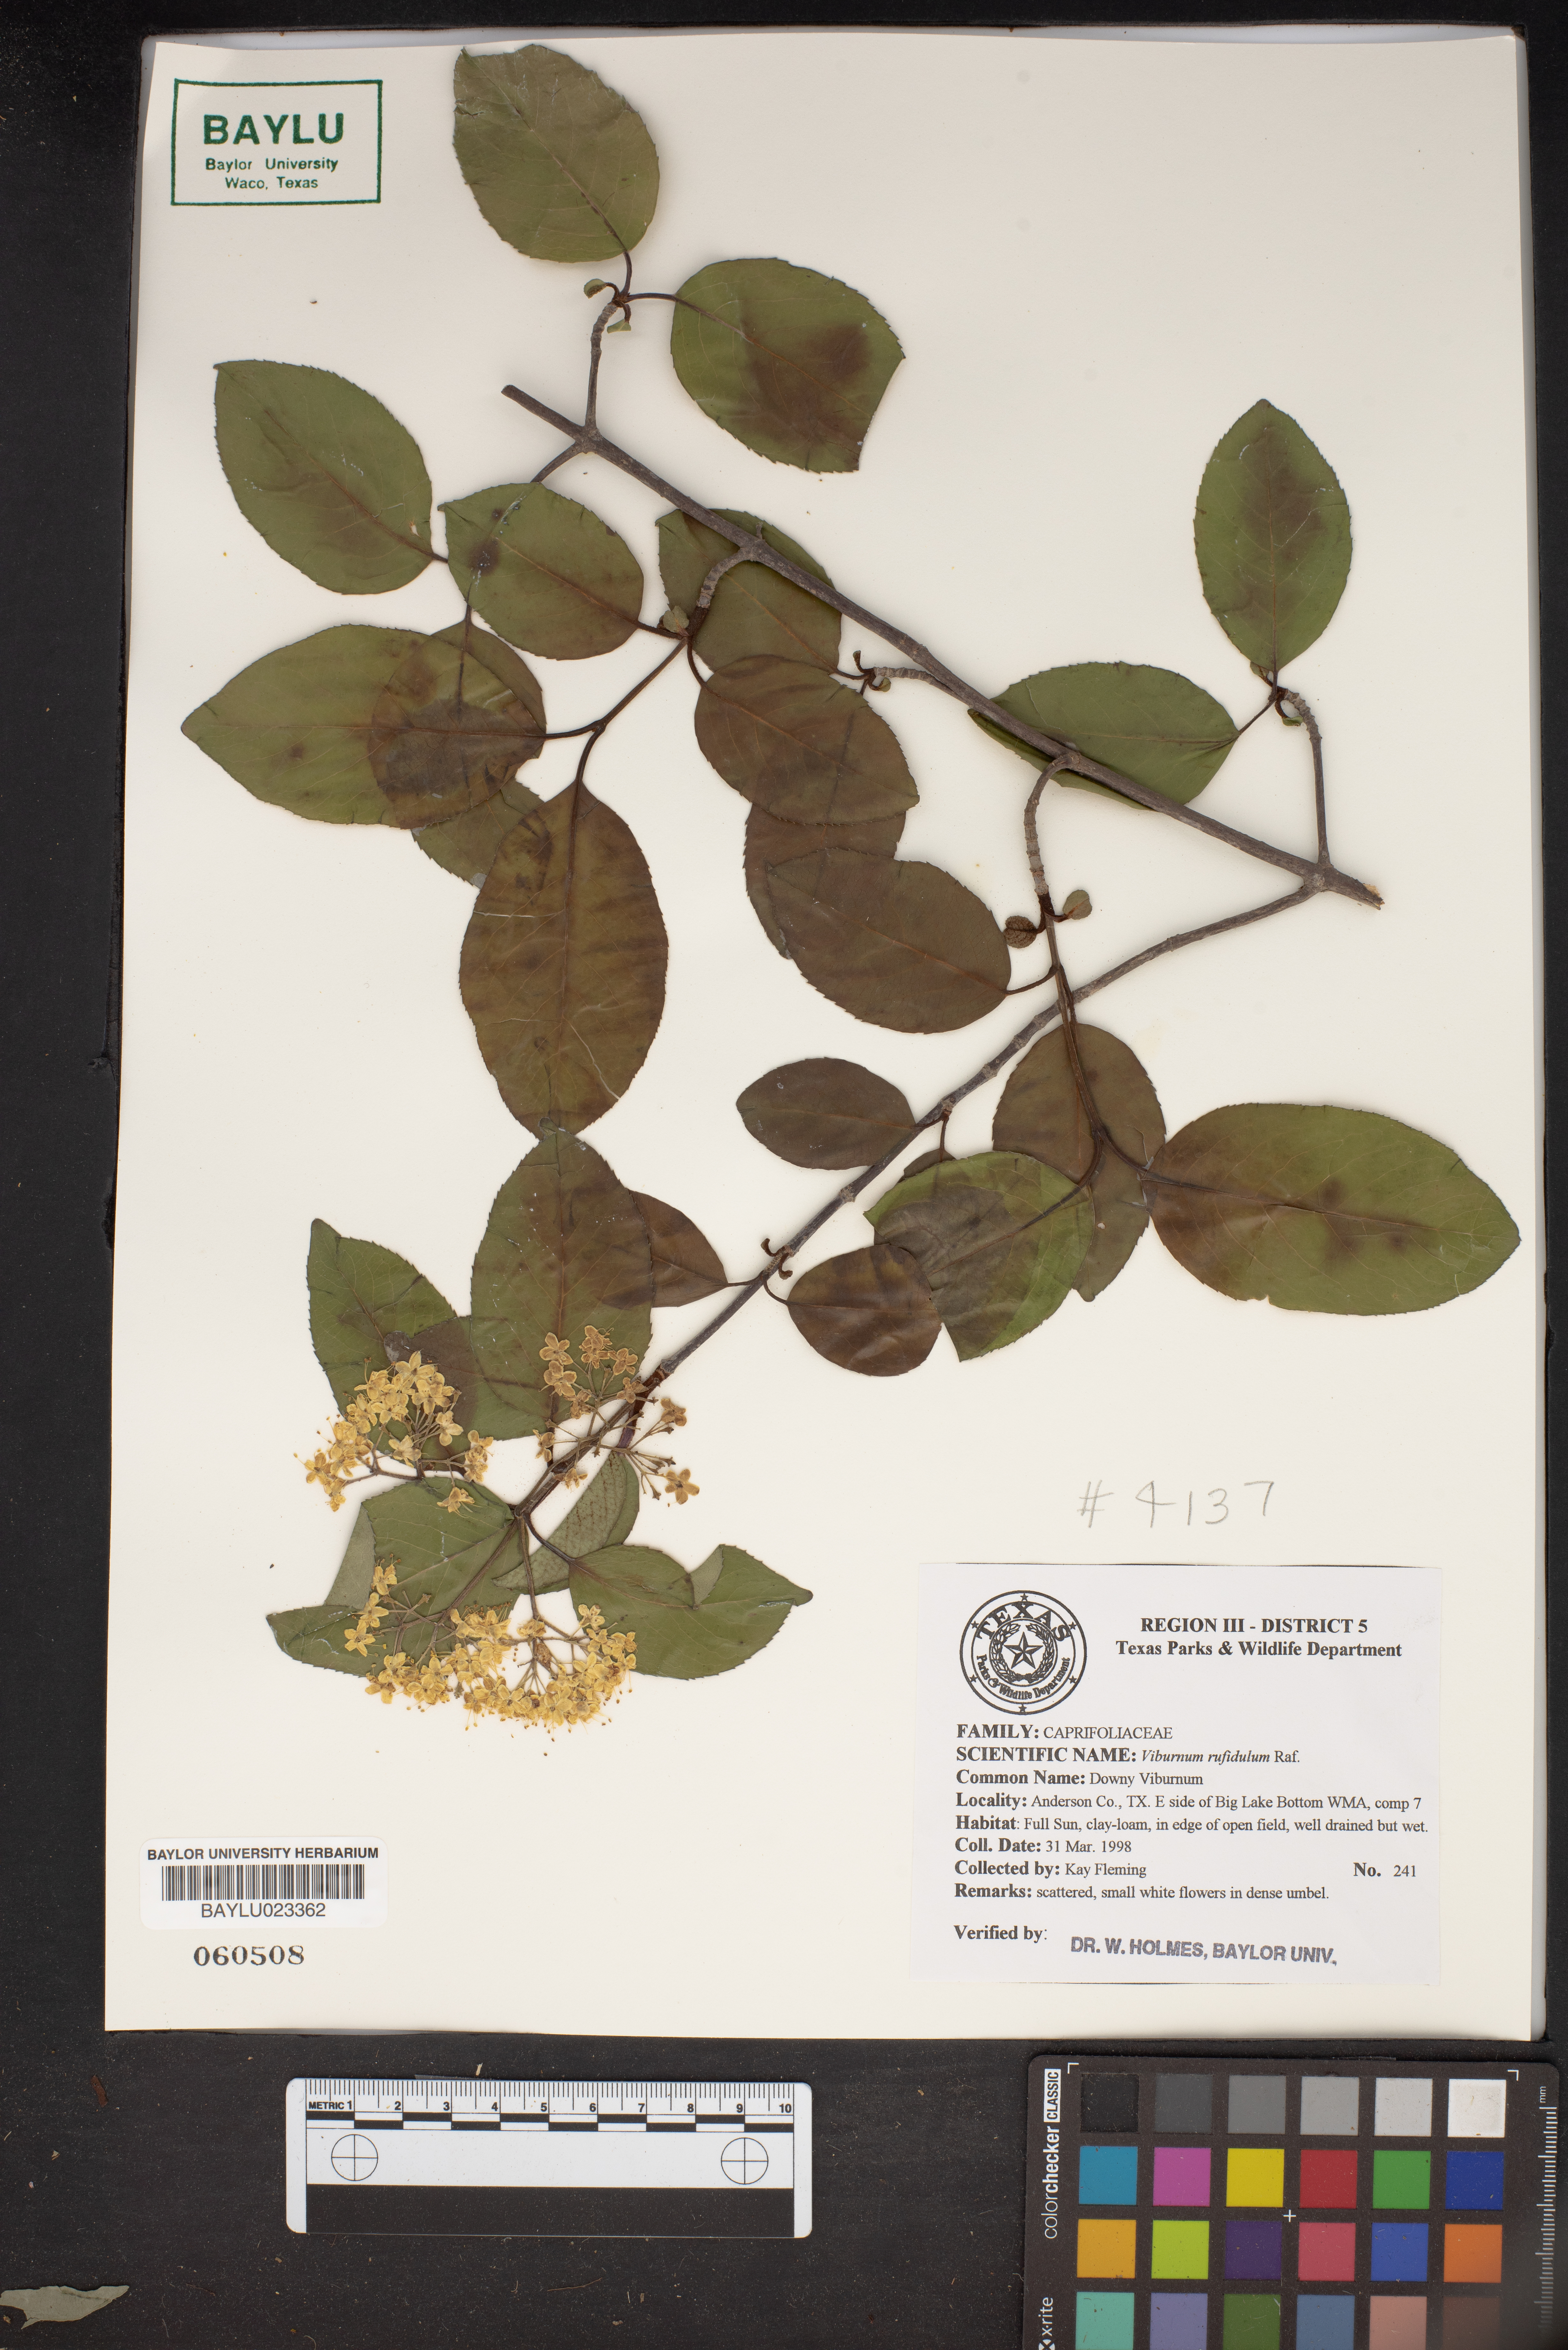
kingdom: Plantae
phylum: Tracheophyta
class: Magnoliopsida
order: Dipsacales
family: Viburnaceae
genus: Viburnum
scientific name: Viburnum rufidulum
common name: Blue haw
